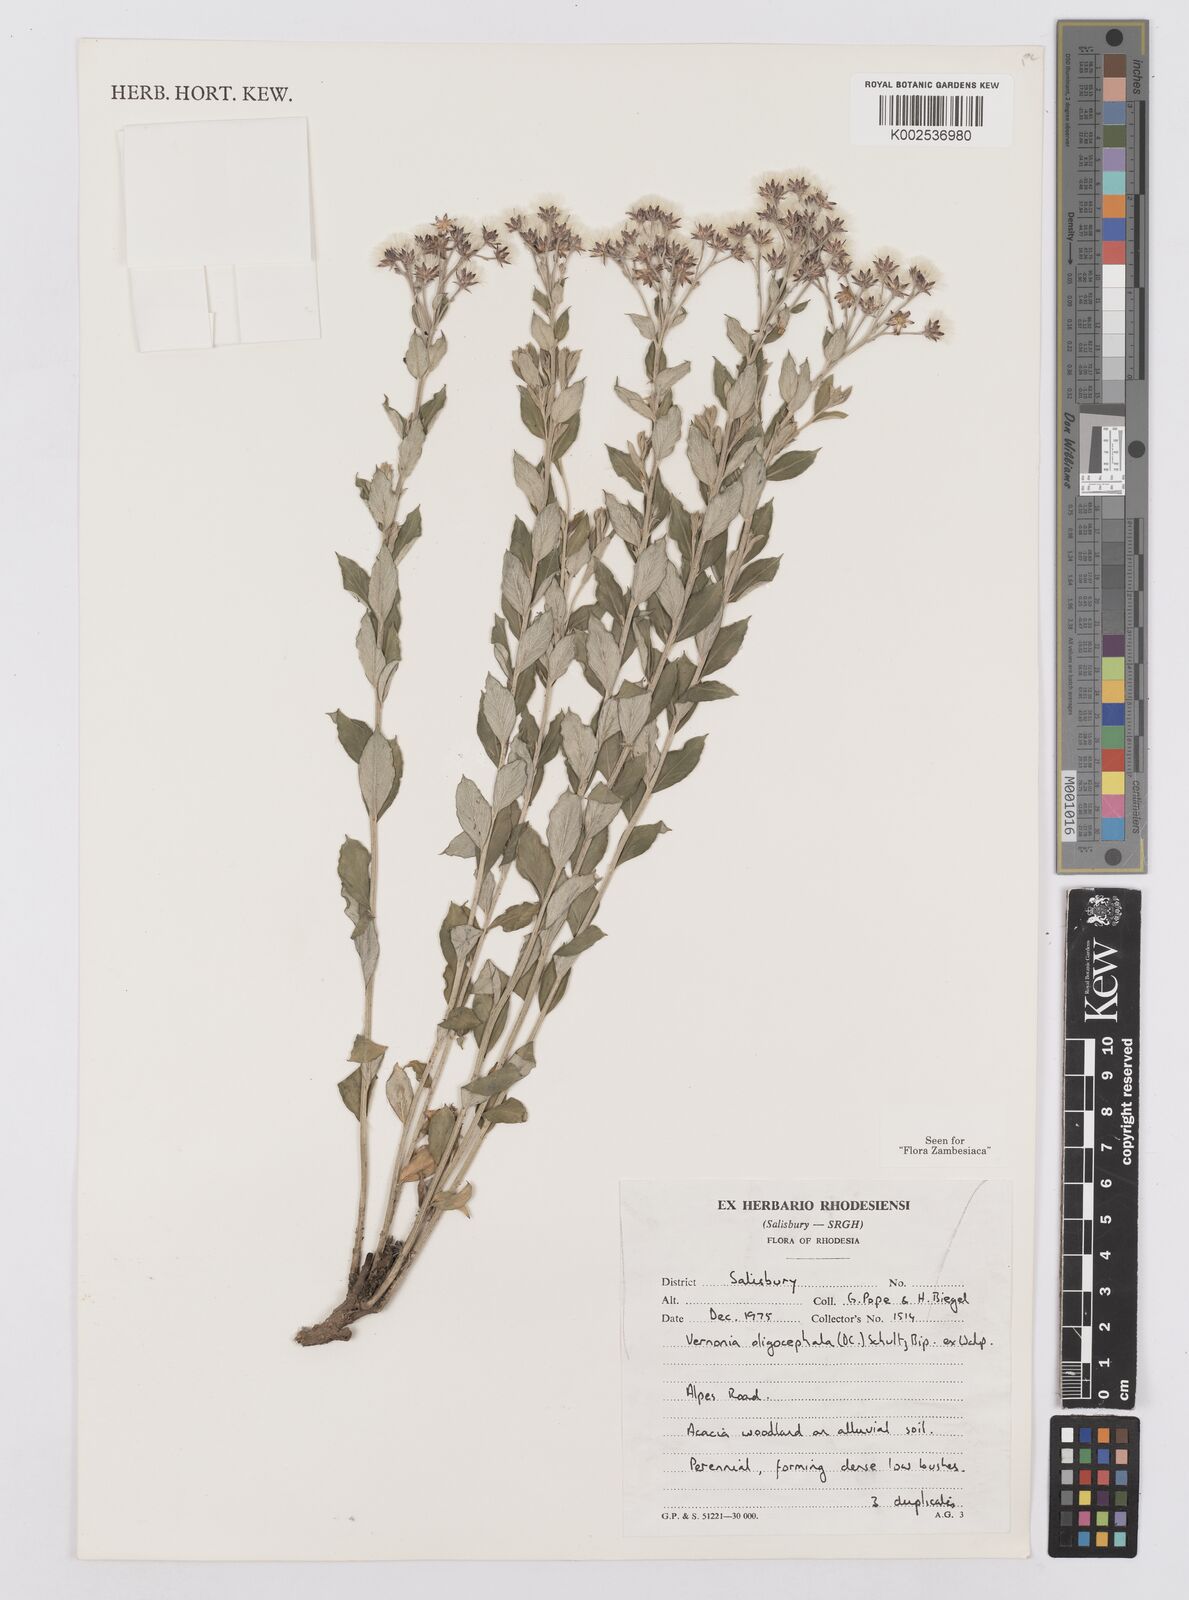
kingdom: Plantae
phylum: Tracheophyta
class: Magnoliopsida
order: Asterales
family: Asteraceae
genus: Hilliardiella
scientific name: Hilliardiella oligocephala
